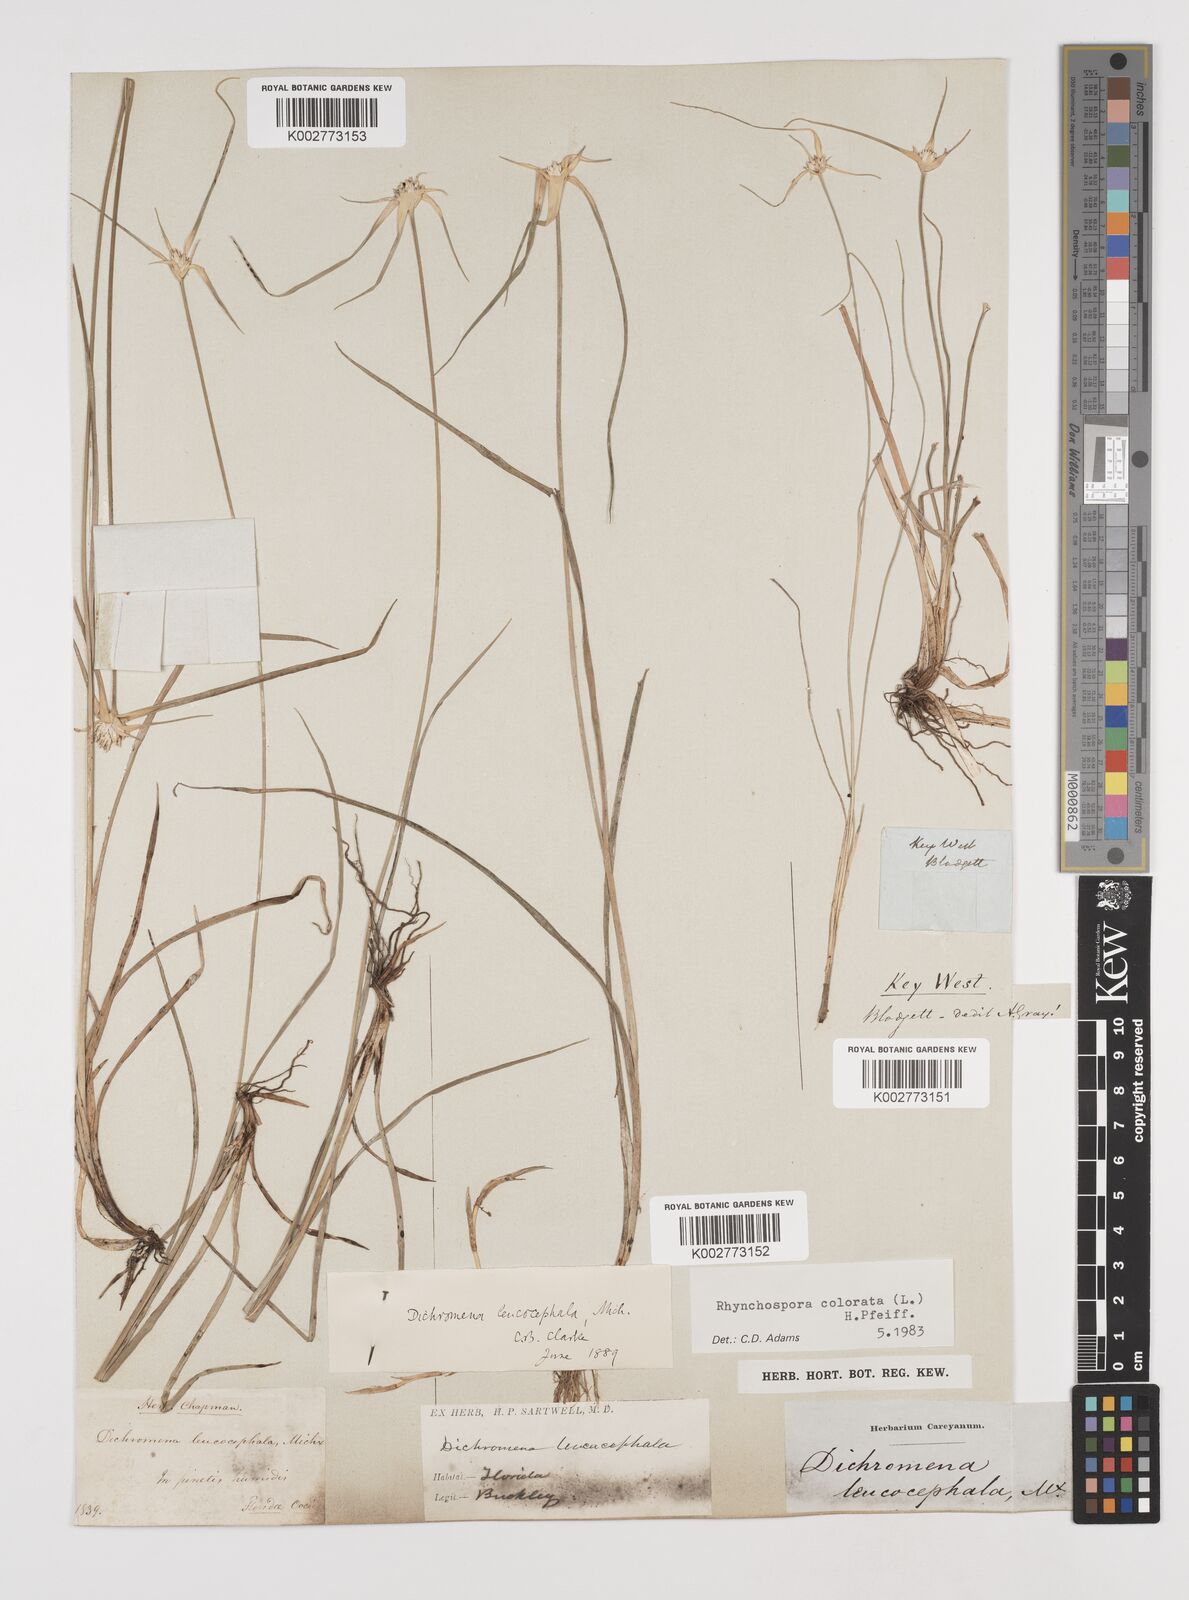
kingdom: Plantae
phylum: Tracheophyta
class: Liliopsida
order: Poales
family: Cyperaceae
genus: Rhynchospora
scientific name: Rhynchospora colorata
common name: Star sedge
